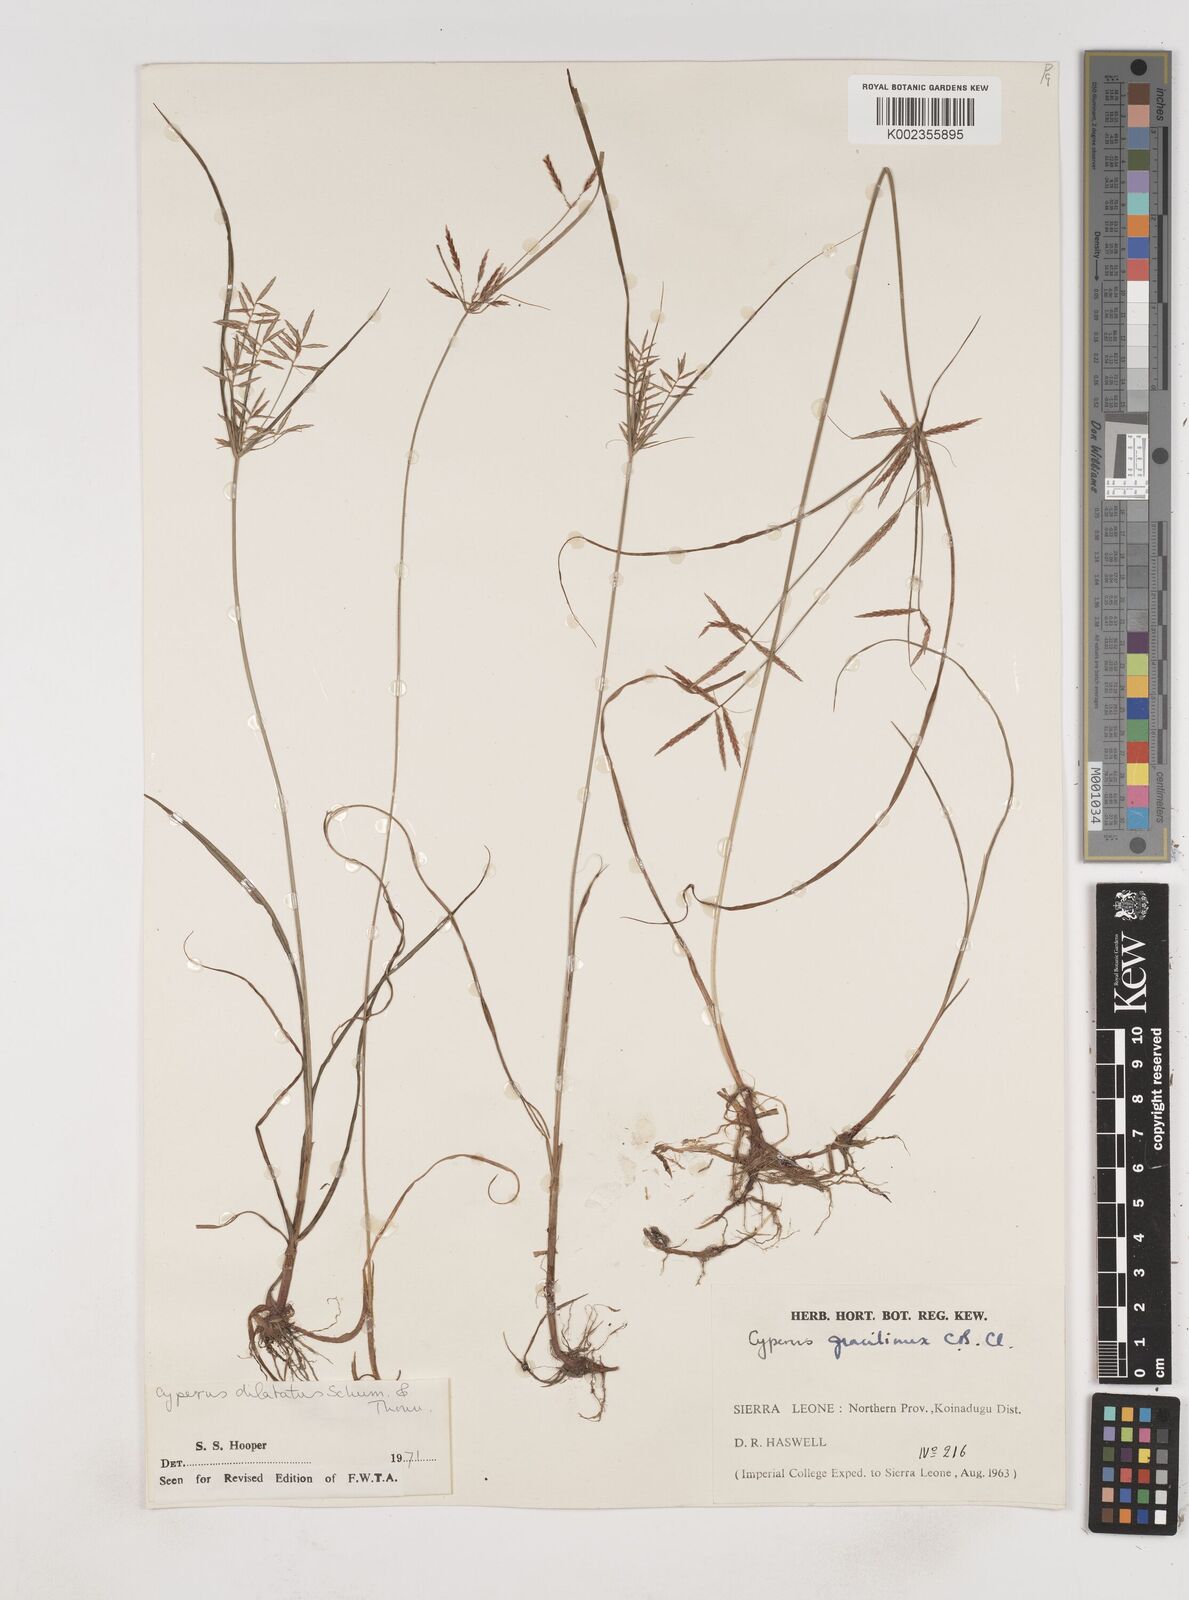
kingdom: Plantae
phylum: Tracheophyta
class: Liliopsida
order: Poales
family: Cyperaceae
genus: Cyperus
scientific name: Cyperus dilatatus
